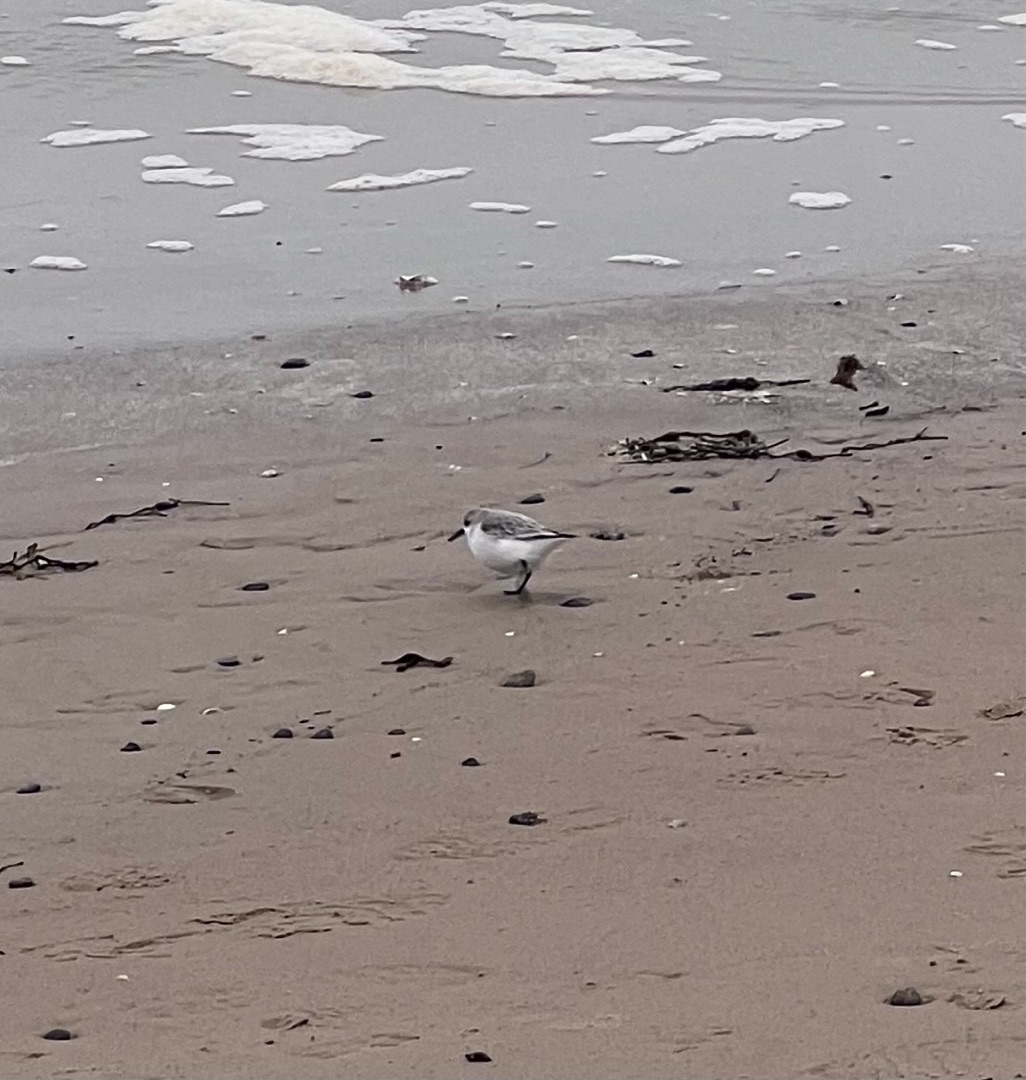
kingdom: Animalia
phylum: Chordata
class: Aves
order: Charadriiformes
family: Scolopacidae
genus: Calidris
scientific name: Calidris alba
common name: Sandløber
